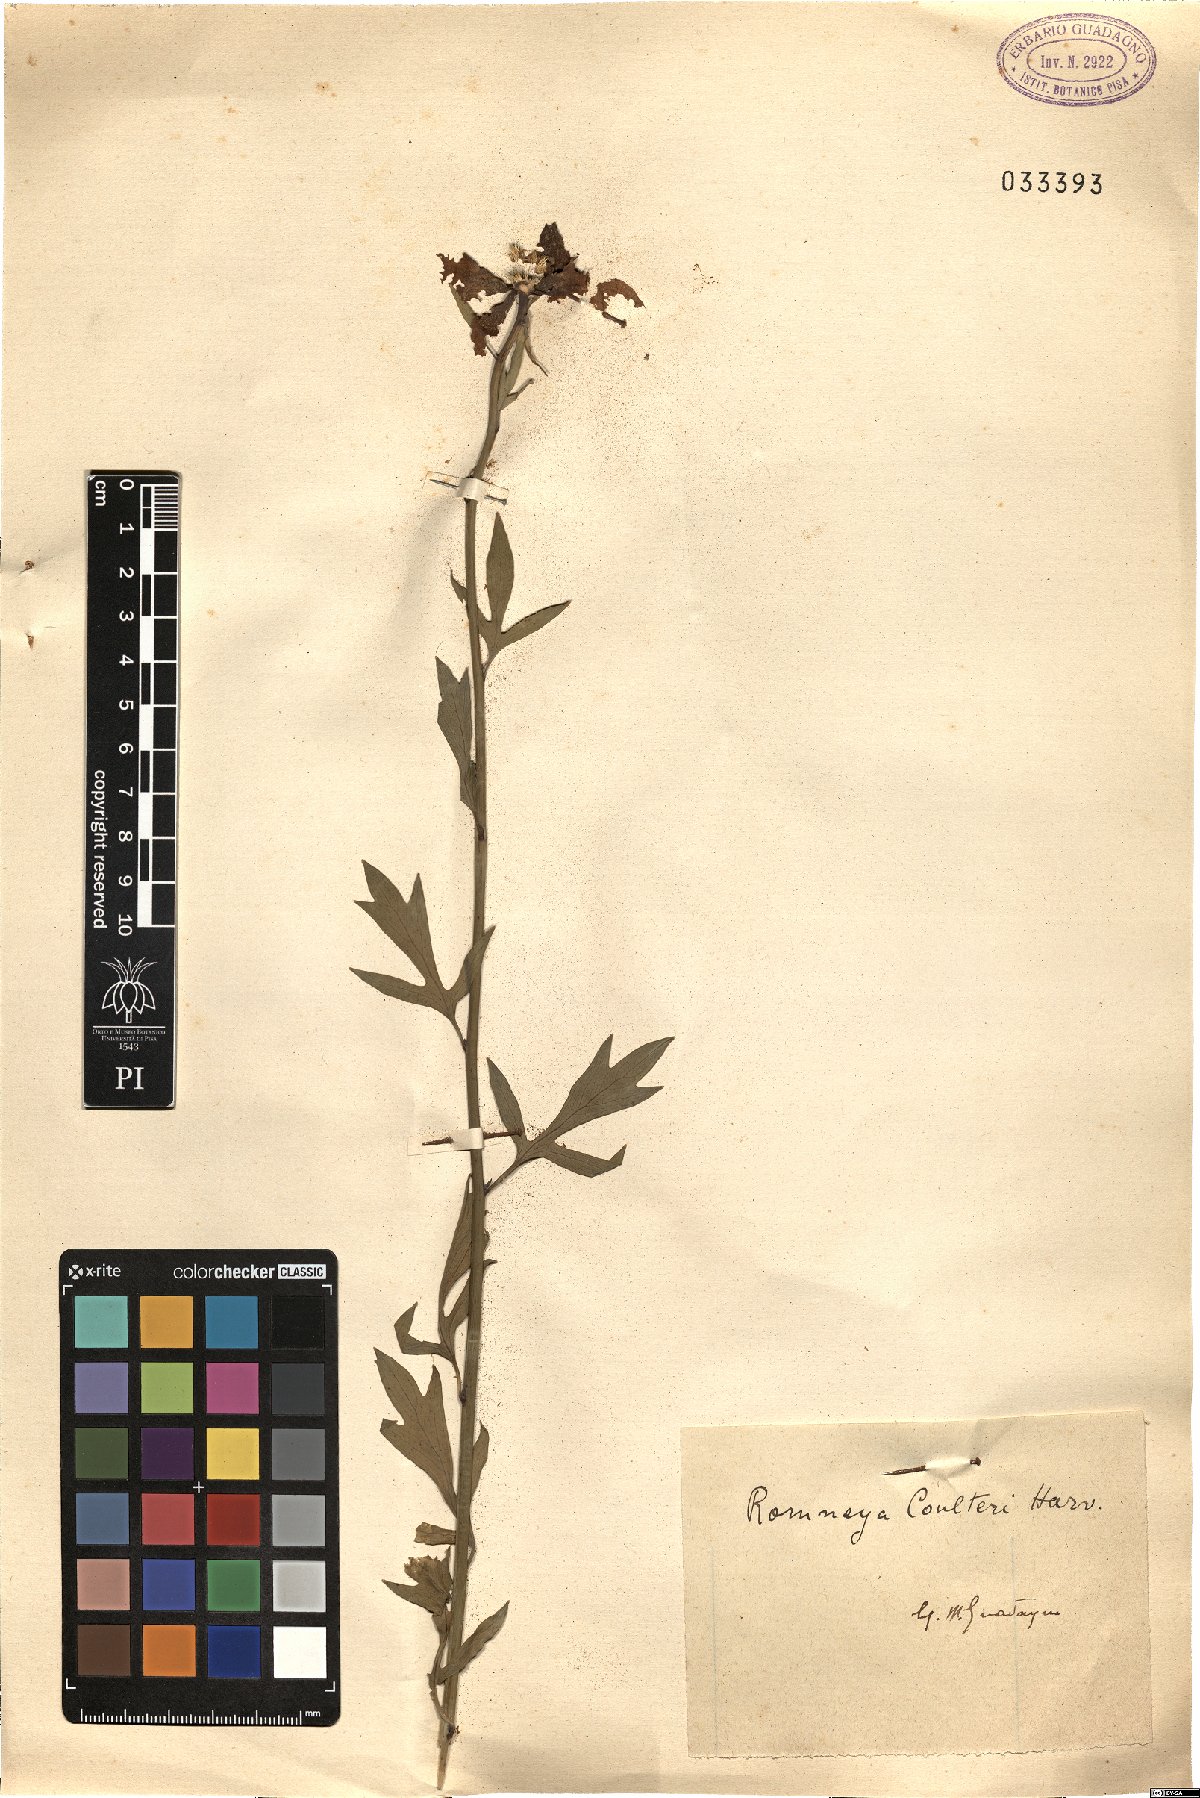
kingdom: Plantae
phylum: Tracheophyta
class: Magnoliopsida
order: Ranunculales
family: Papaveraceae
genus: Romneya
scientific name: Romneya coulteri
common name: California tree-poppy
